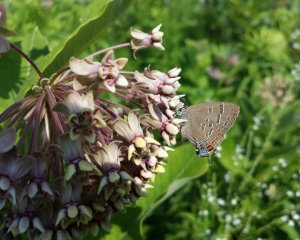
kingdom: Animalia
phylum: Arthropoda
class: Insecta
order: Lepidoptera
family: Lycaenidae
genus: Satyrium
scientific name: Satyrium calanus
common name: Banded Hairstreak
